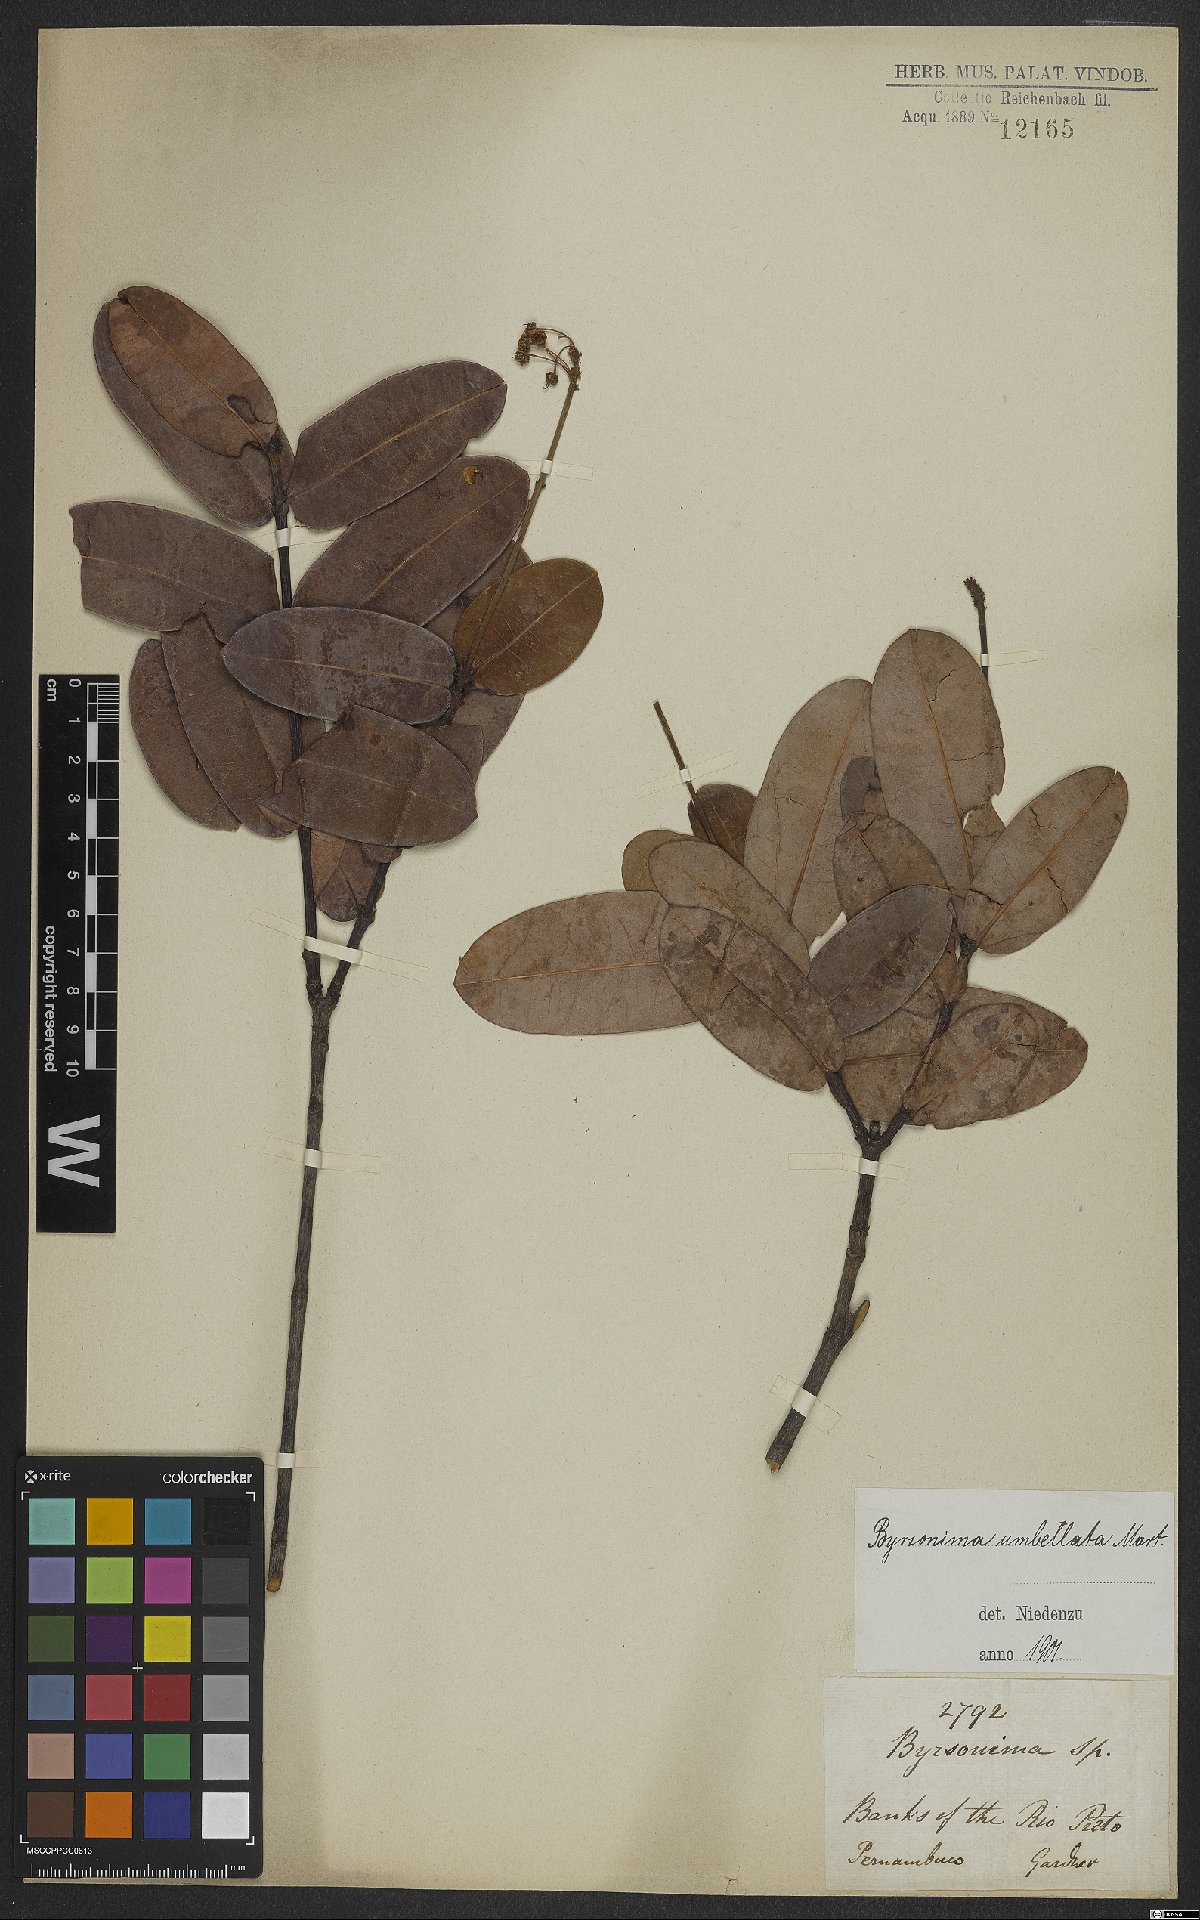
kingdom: Plantae
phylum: Tracheophyta
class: Magnoliopsida
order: Malpighiales
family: Malpighiaceae
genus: Byrsonima
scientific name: Byrsonima umbellata
